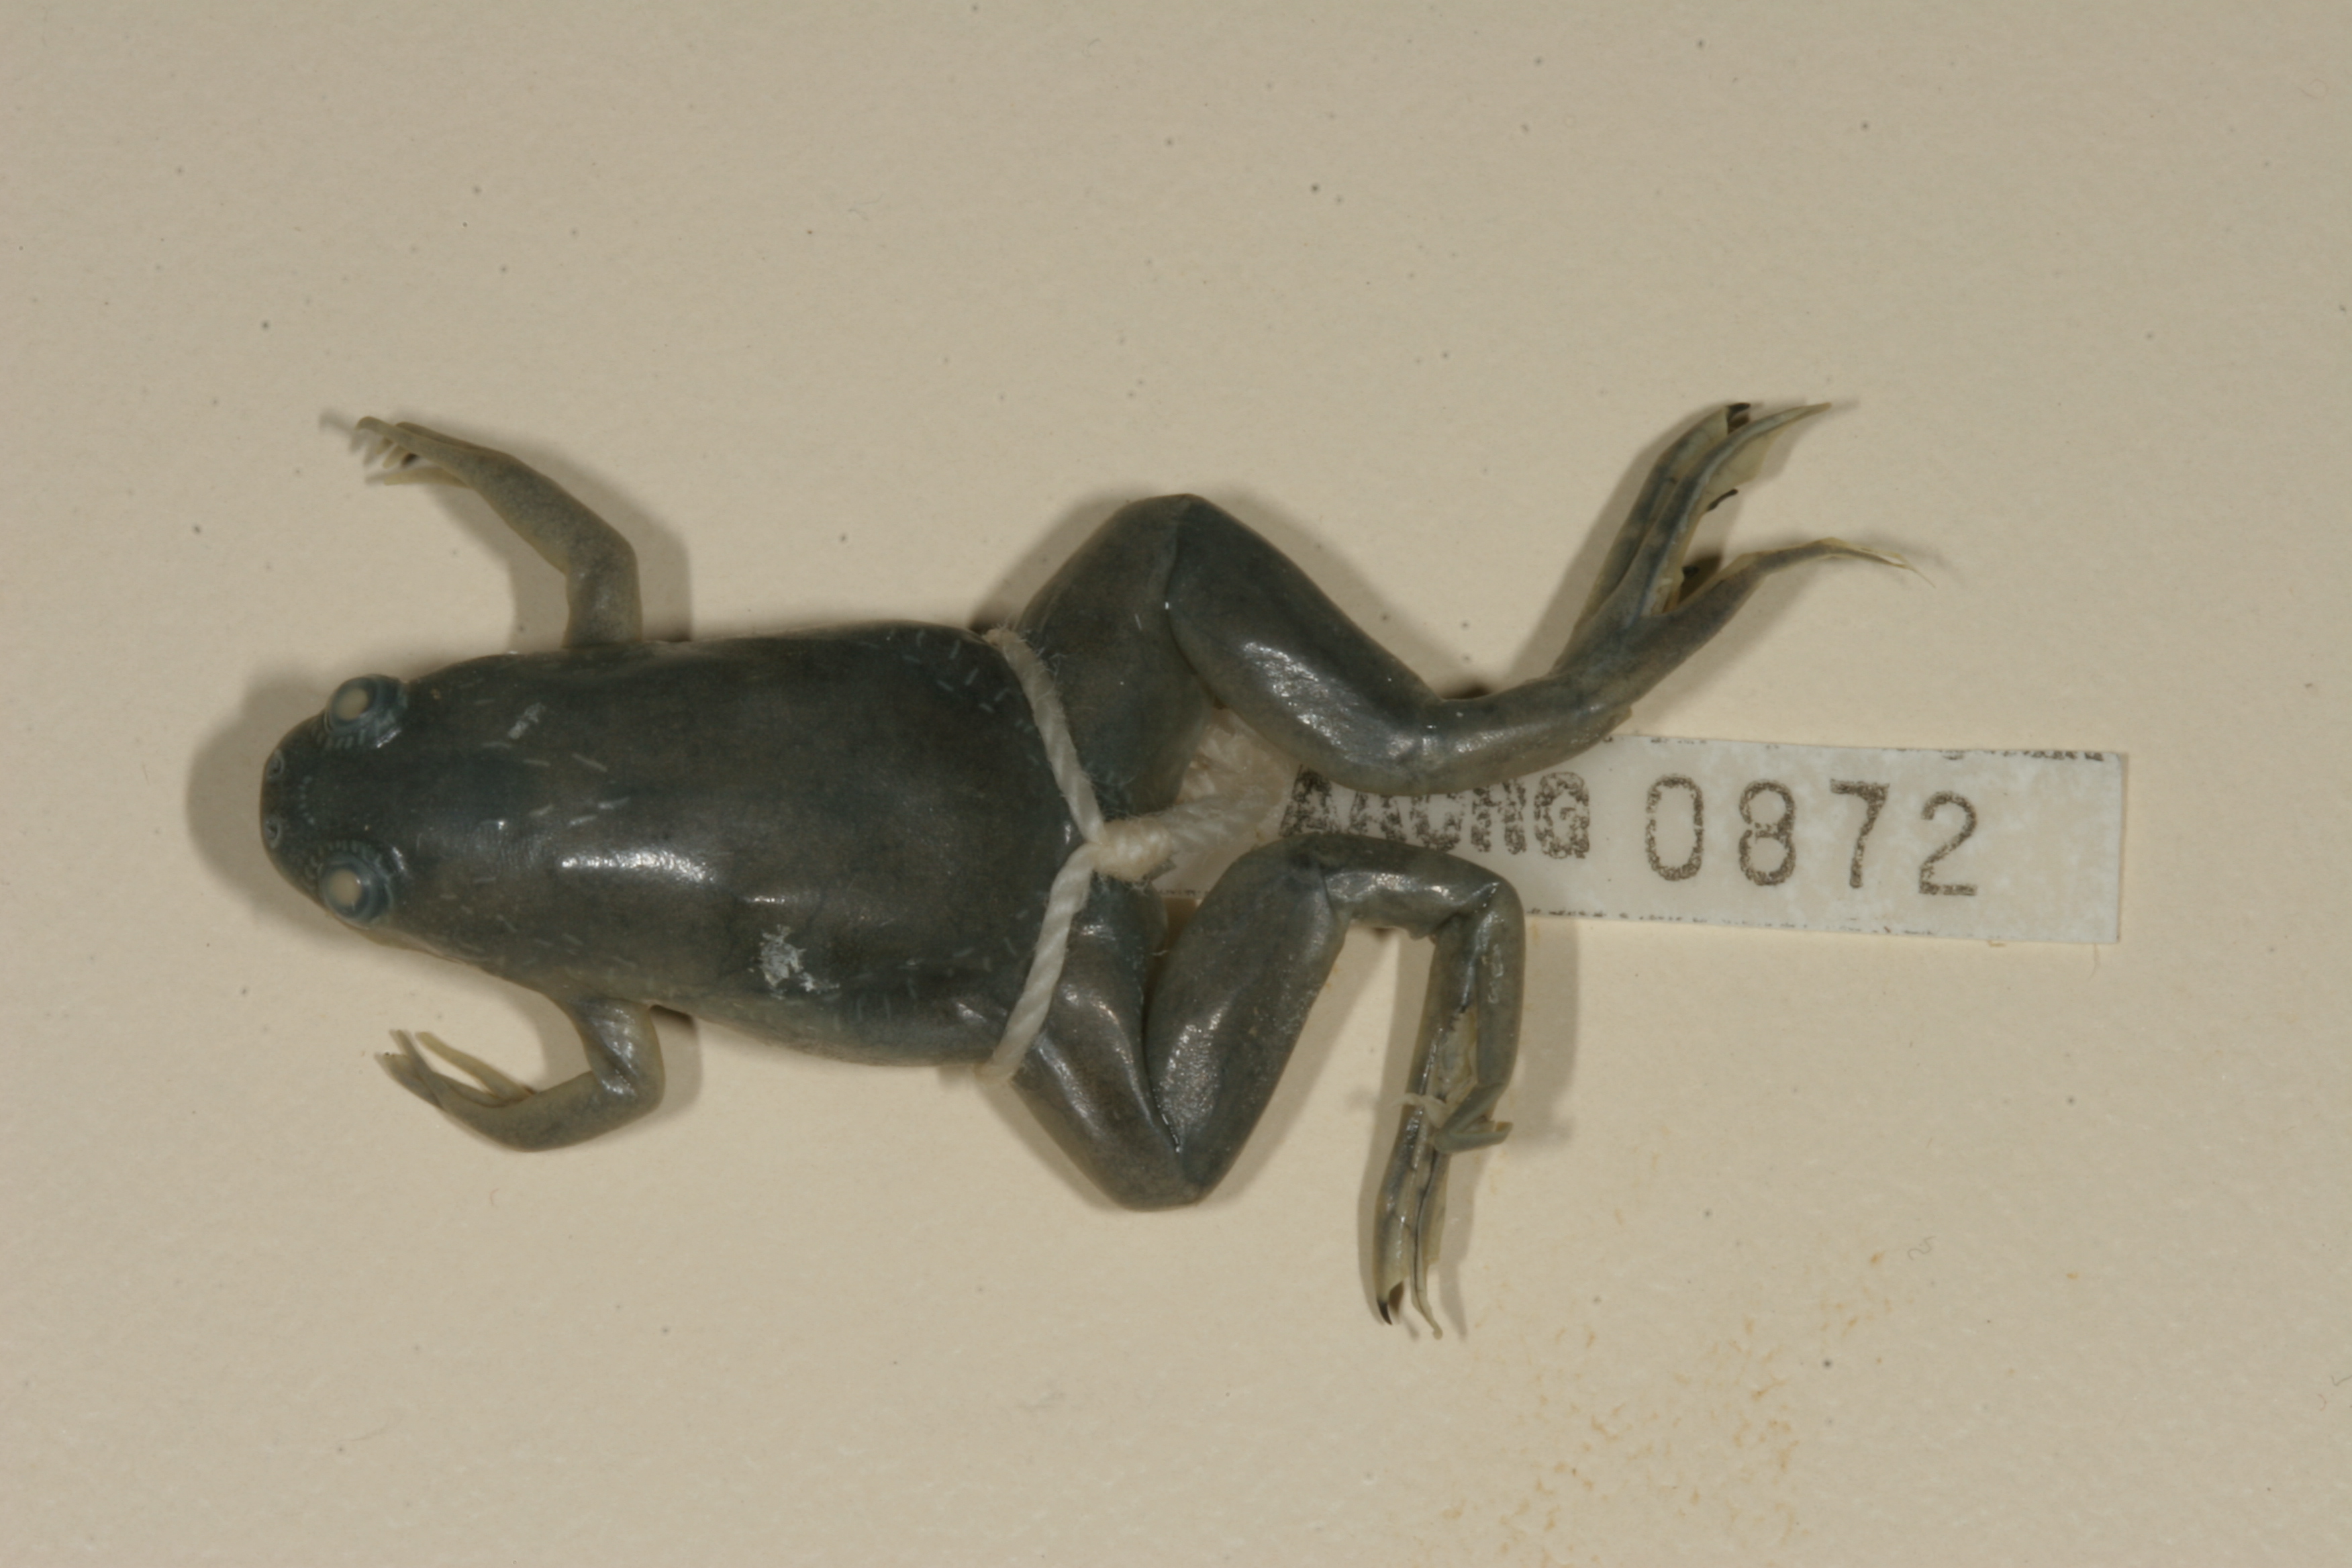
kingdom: Animalia
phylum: Chordata
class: Amphibia
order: Anura
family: Pipidae
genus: Xenopus
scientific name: Xenopus laevis
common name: African clawed frog
